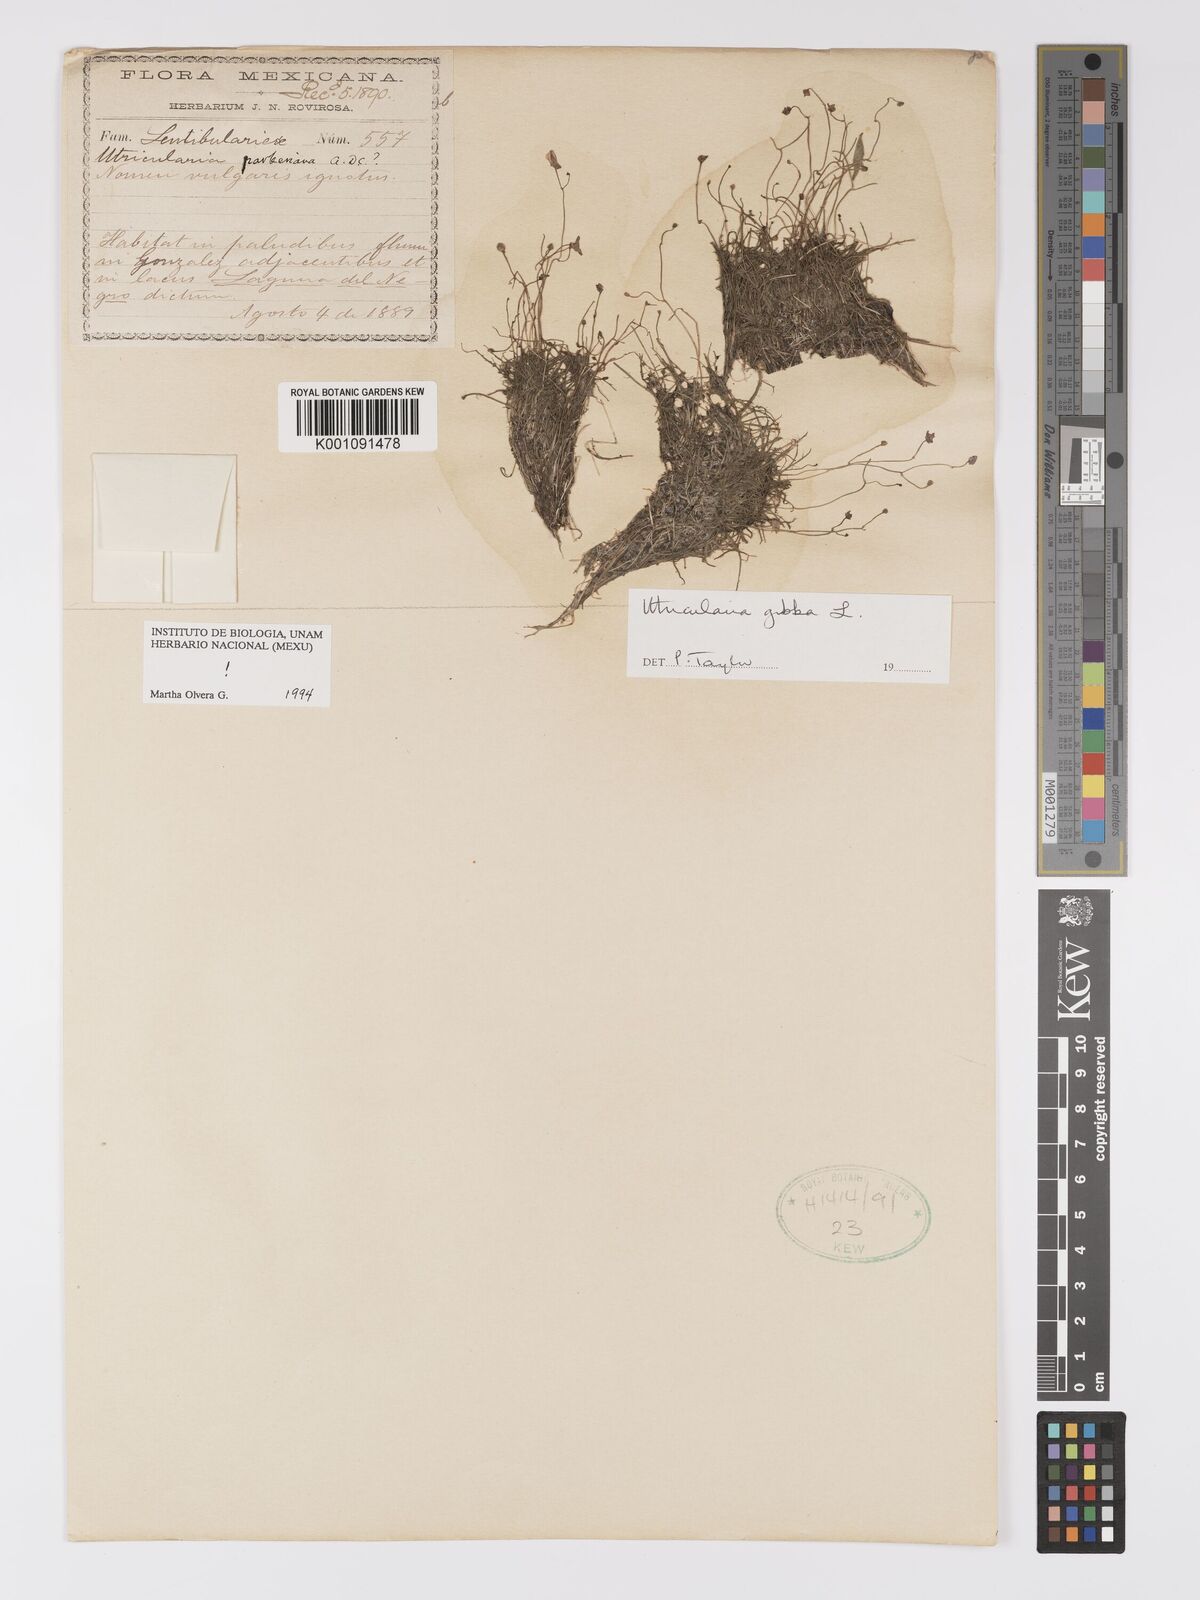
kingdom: Plantae
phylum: Tracheophyta
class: Magnoliopsida
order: Lamiales
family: Lentibulariaceae
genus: Utricularia
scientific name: Utricularia gibba
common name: Humped bladderwort
